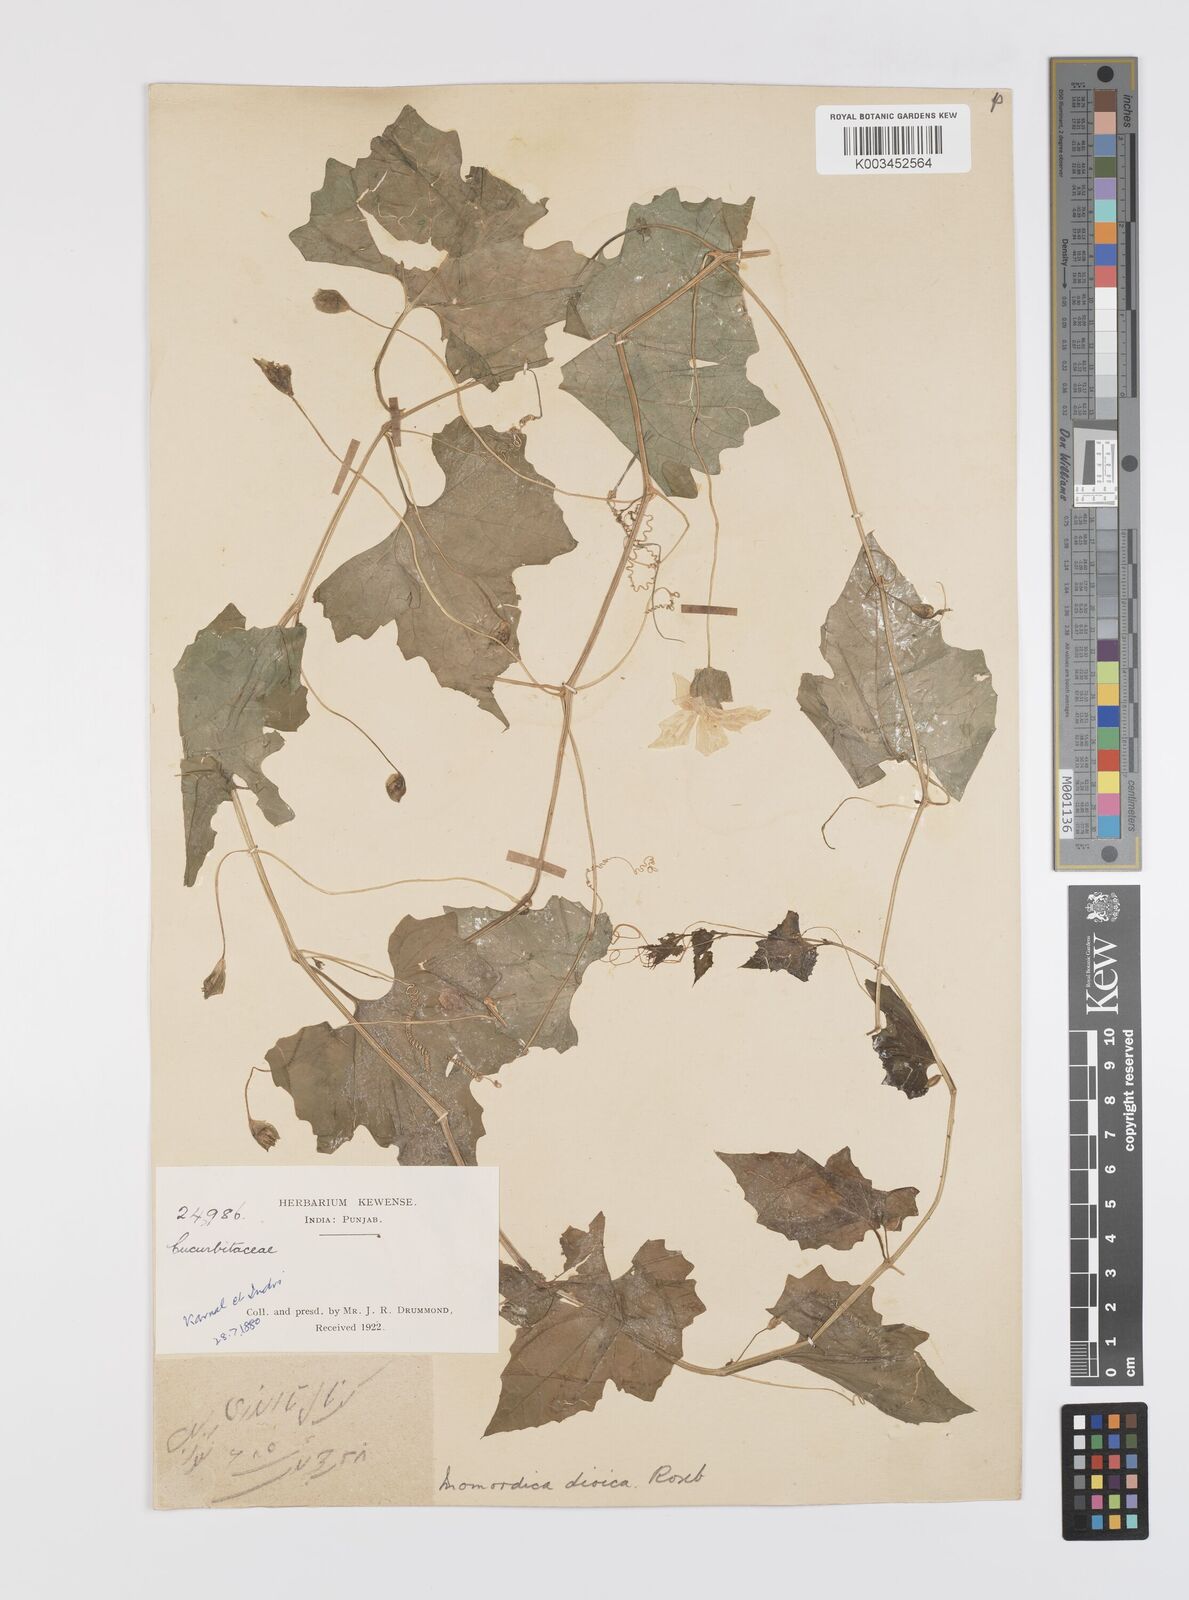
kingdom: Plantae
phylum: Tracheophyta
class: Magnoliopsida
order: Cucurbitales
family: Cucurbitaceae
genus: Momordica
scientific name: Momordica dioica
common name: Spine gourd
